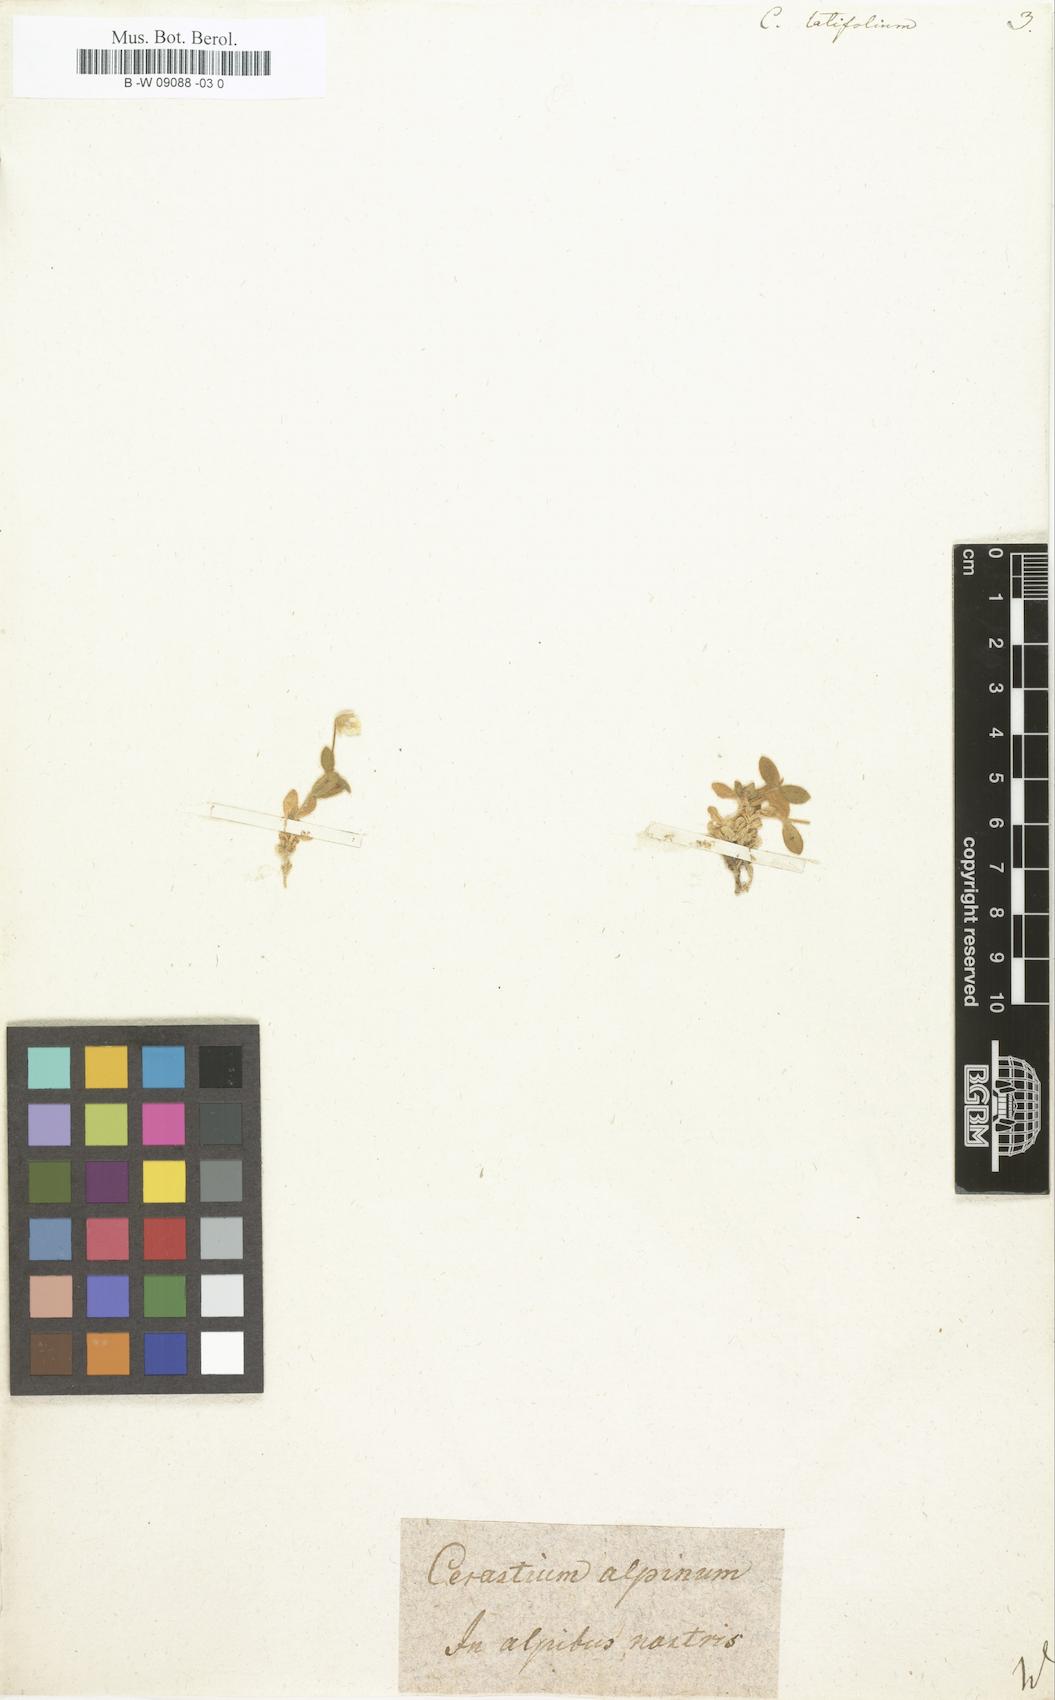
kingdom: Plantae
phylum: Tracheophyta
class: Magnoliopsida
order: Caryophyllales
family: Caryophyllaceae
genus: Cerastium
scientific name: Cerastium latifolium
